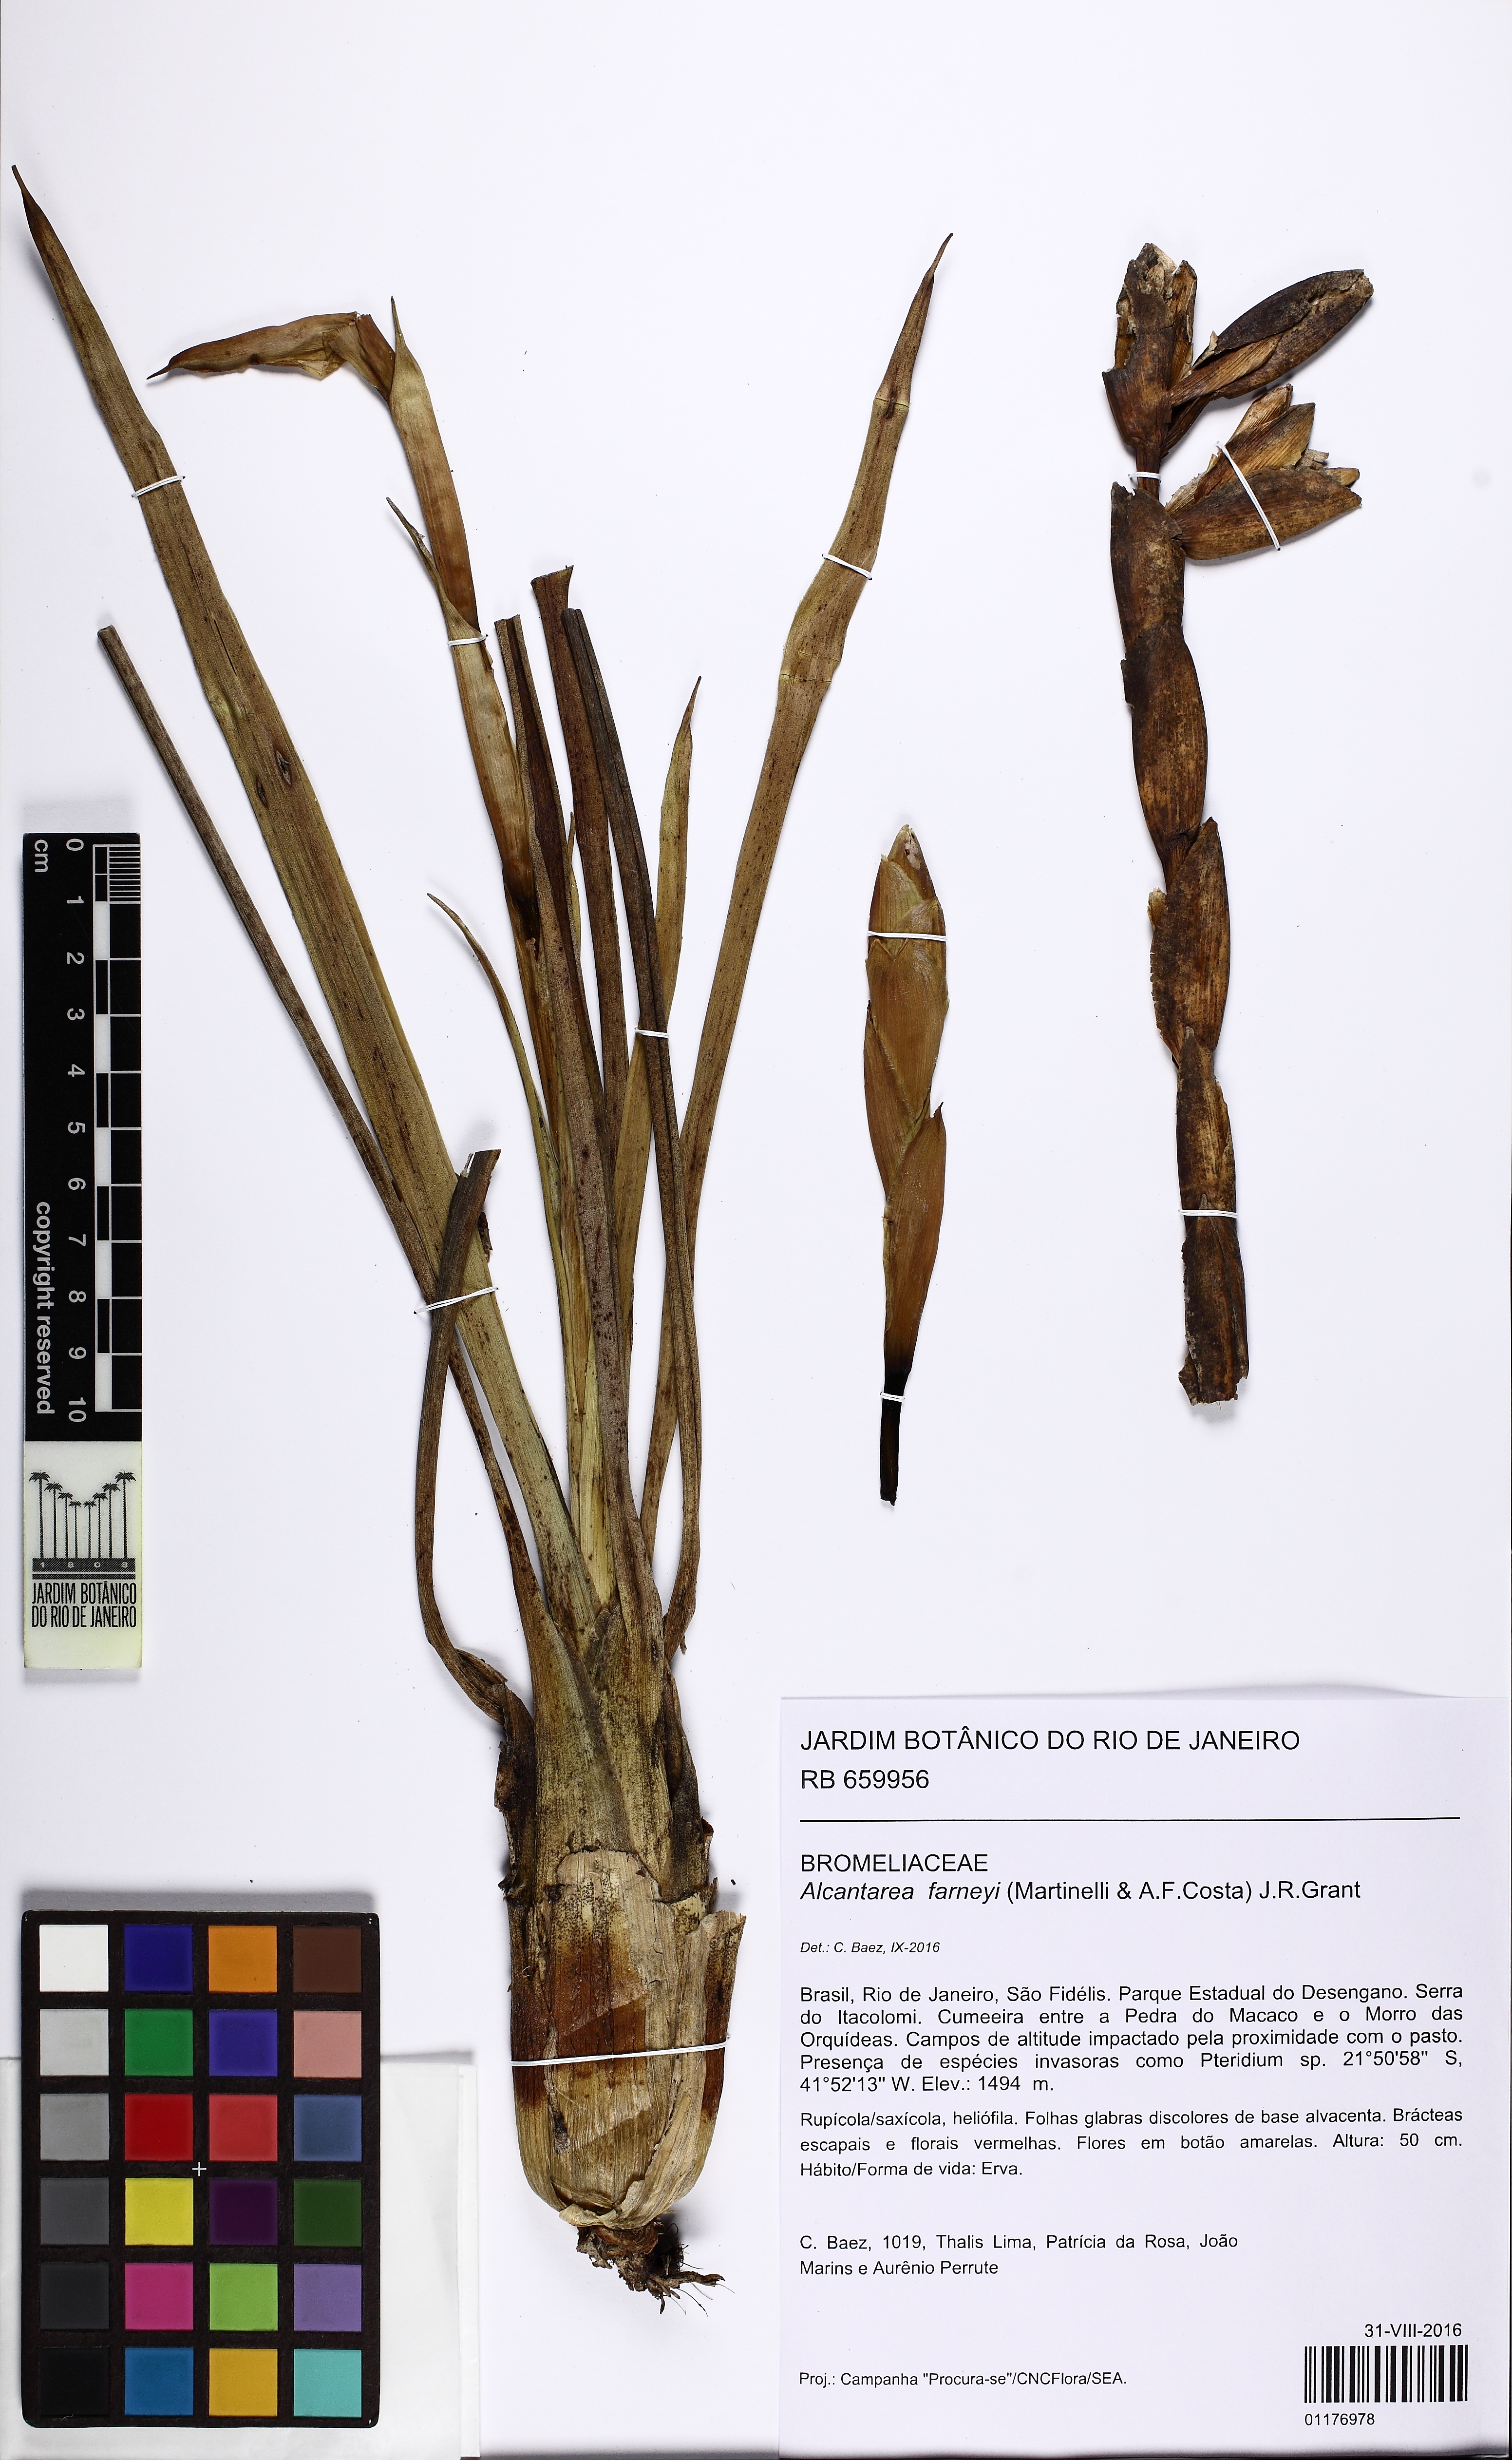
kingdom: Plantae
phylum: Tracheophyta
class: Liliopsida
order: Poales
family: Bromeliaceae
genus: Alcantarea
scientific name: Alcantarea farneyi
